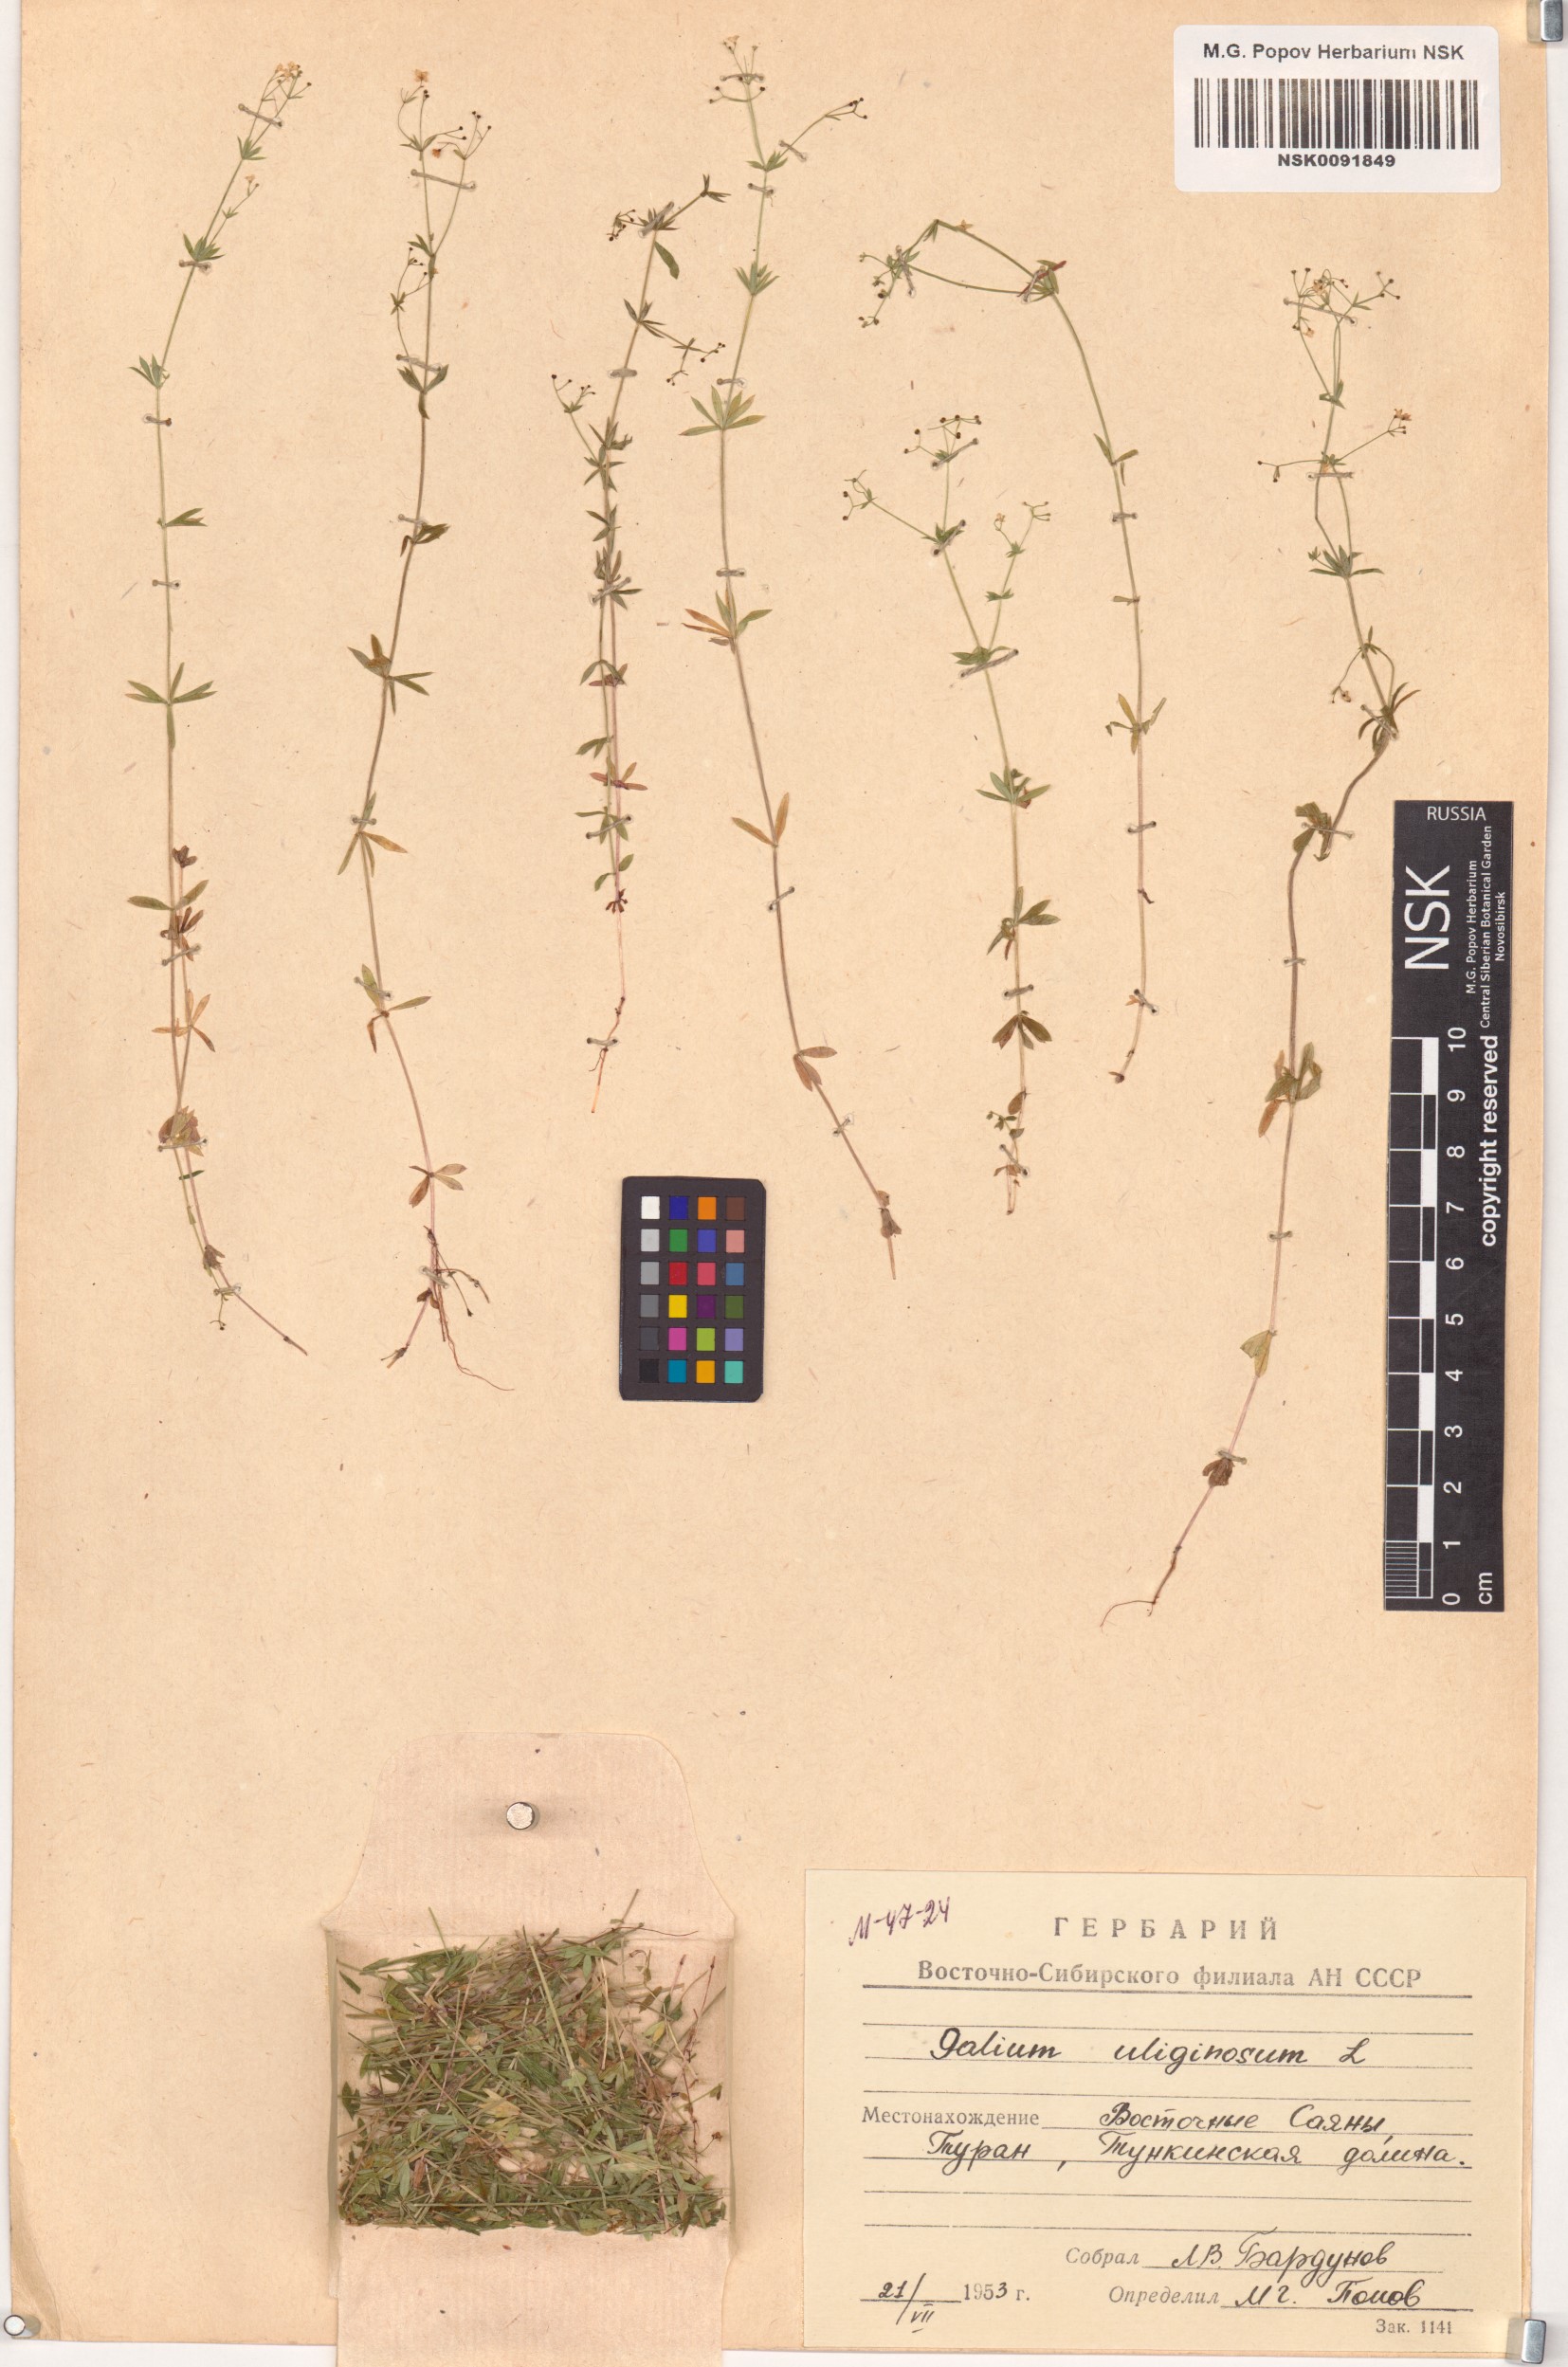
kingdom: Plantae
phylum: Tracheophyta
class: Magnoliopsida
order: Gentianales
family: Rubiaceae
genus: Galium
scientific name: Galium uliginosum
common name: Fen bedstraw
